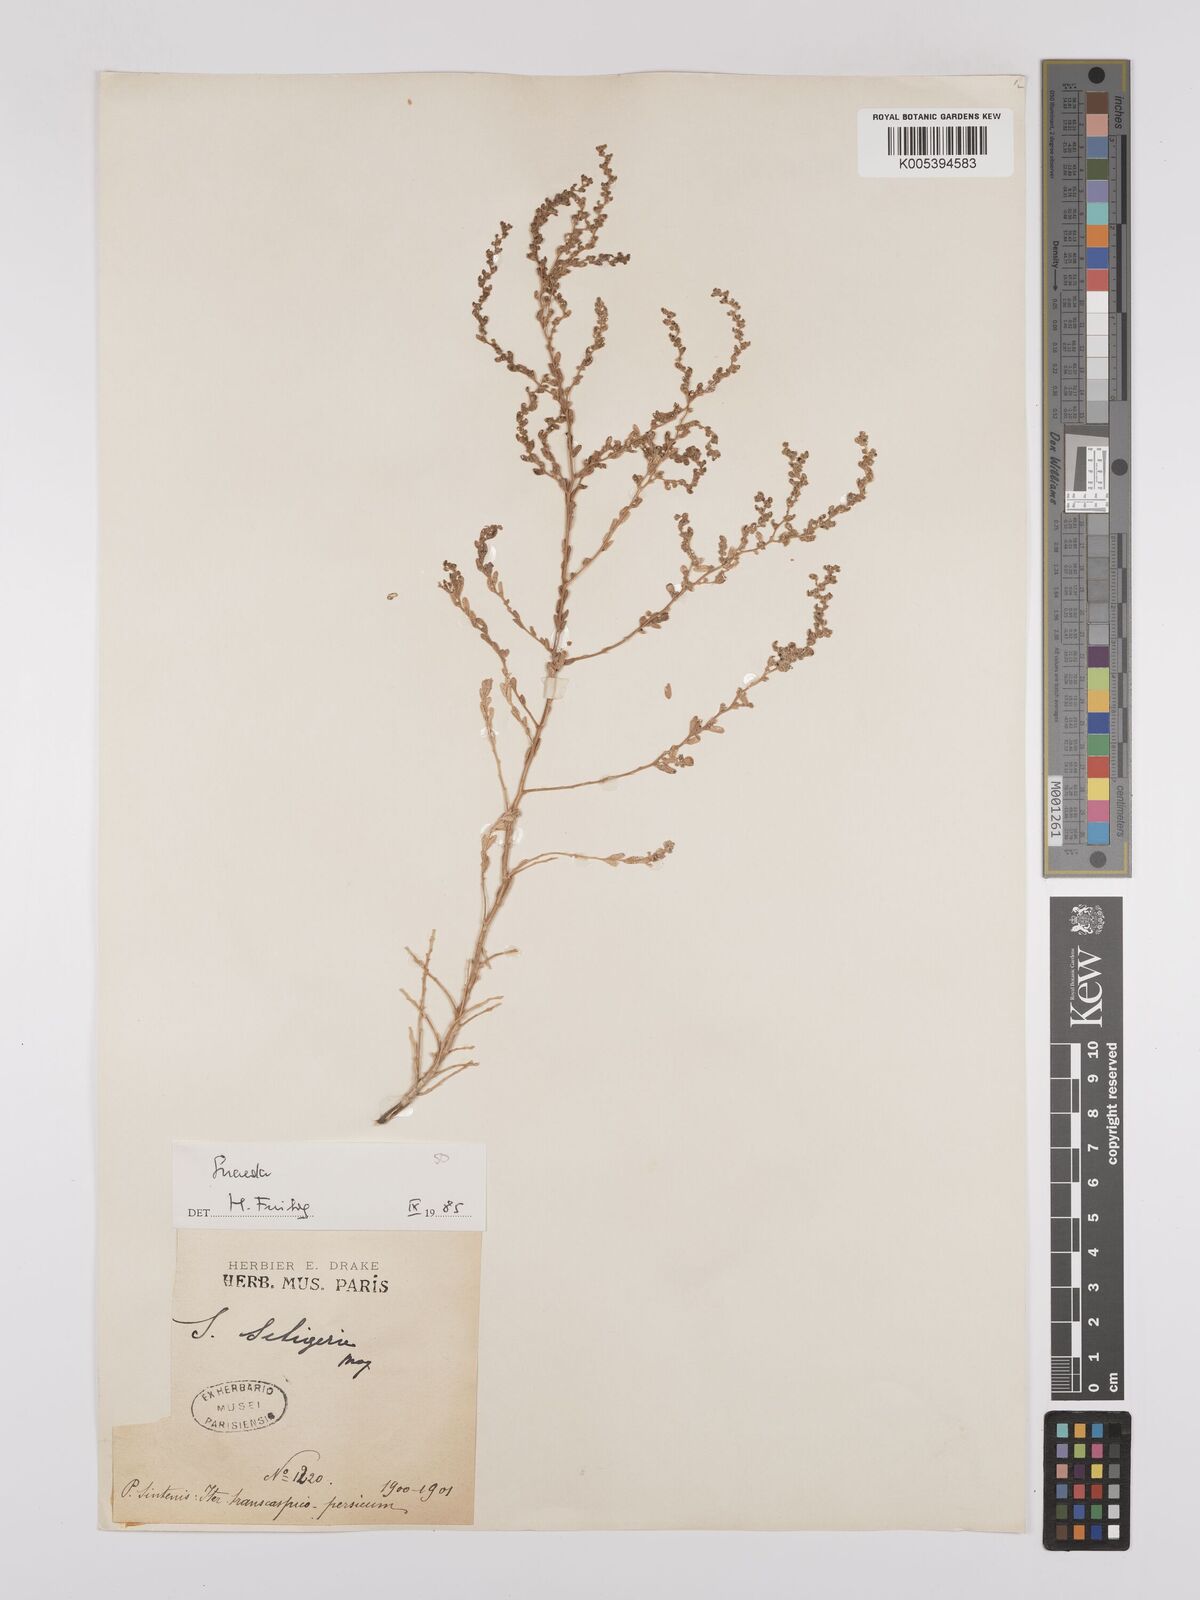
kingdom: Plantae
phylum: Tracheophyta
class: Magnoliopsida
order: Caryophyllales
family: Amaranthaceae
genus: Suaeda
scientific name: Suaeda
